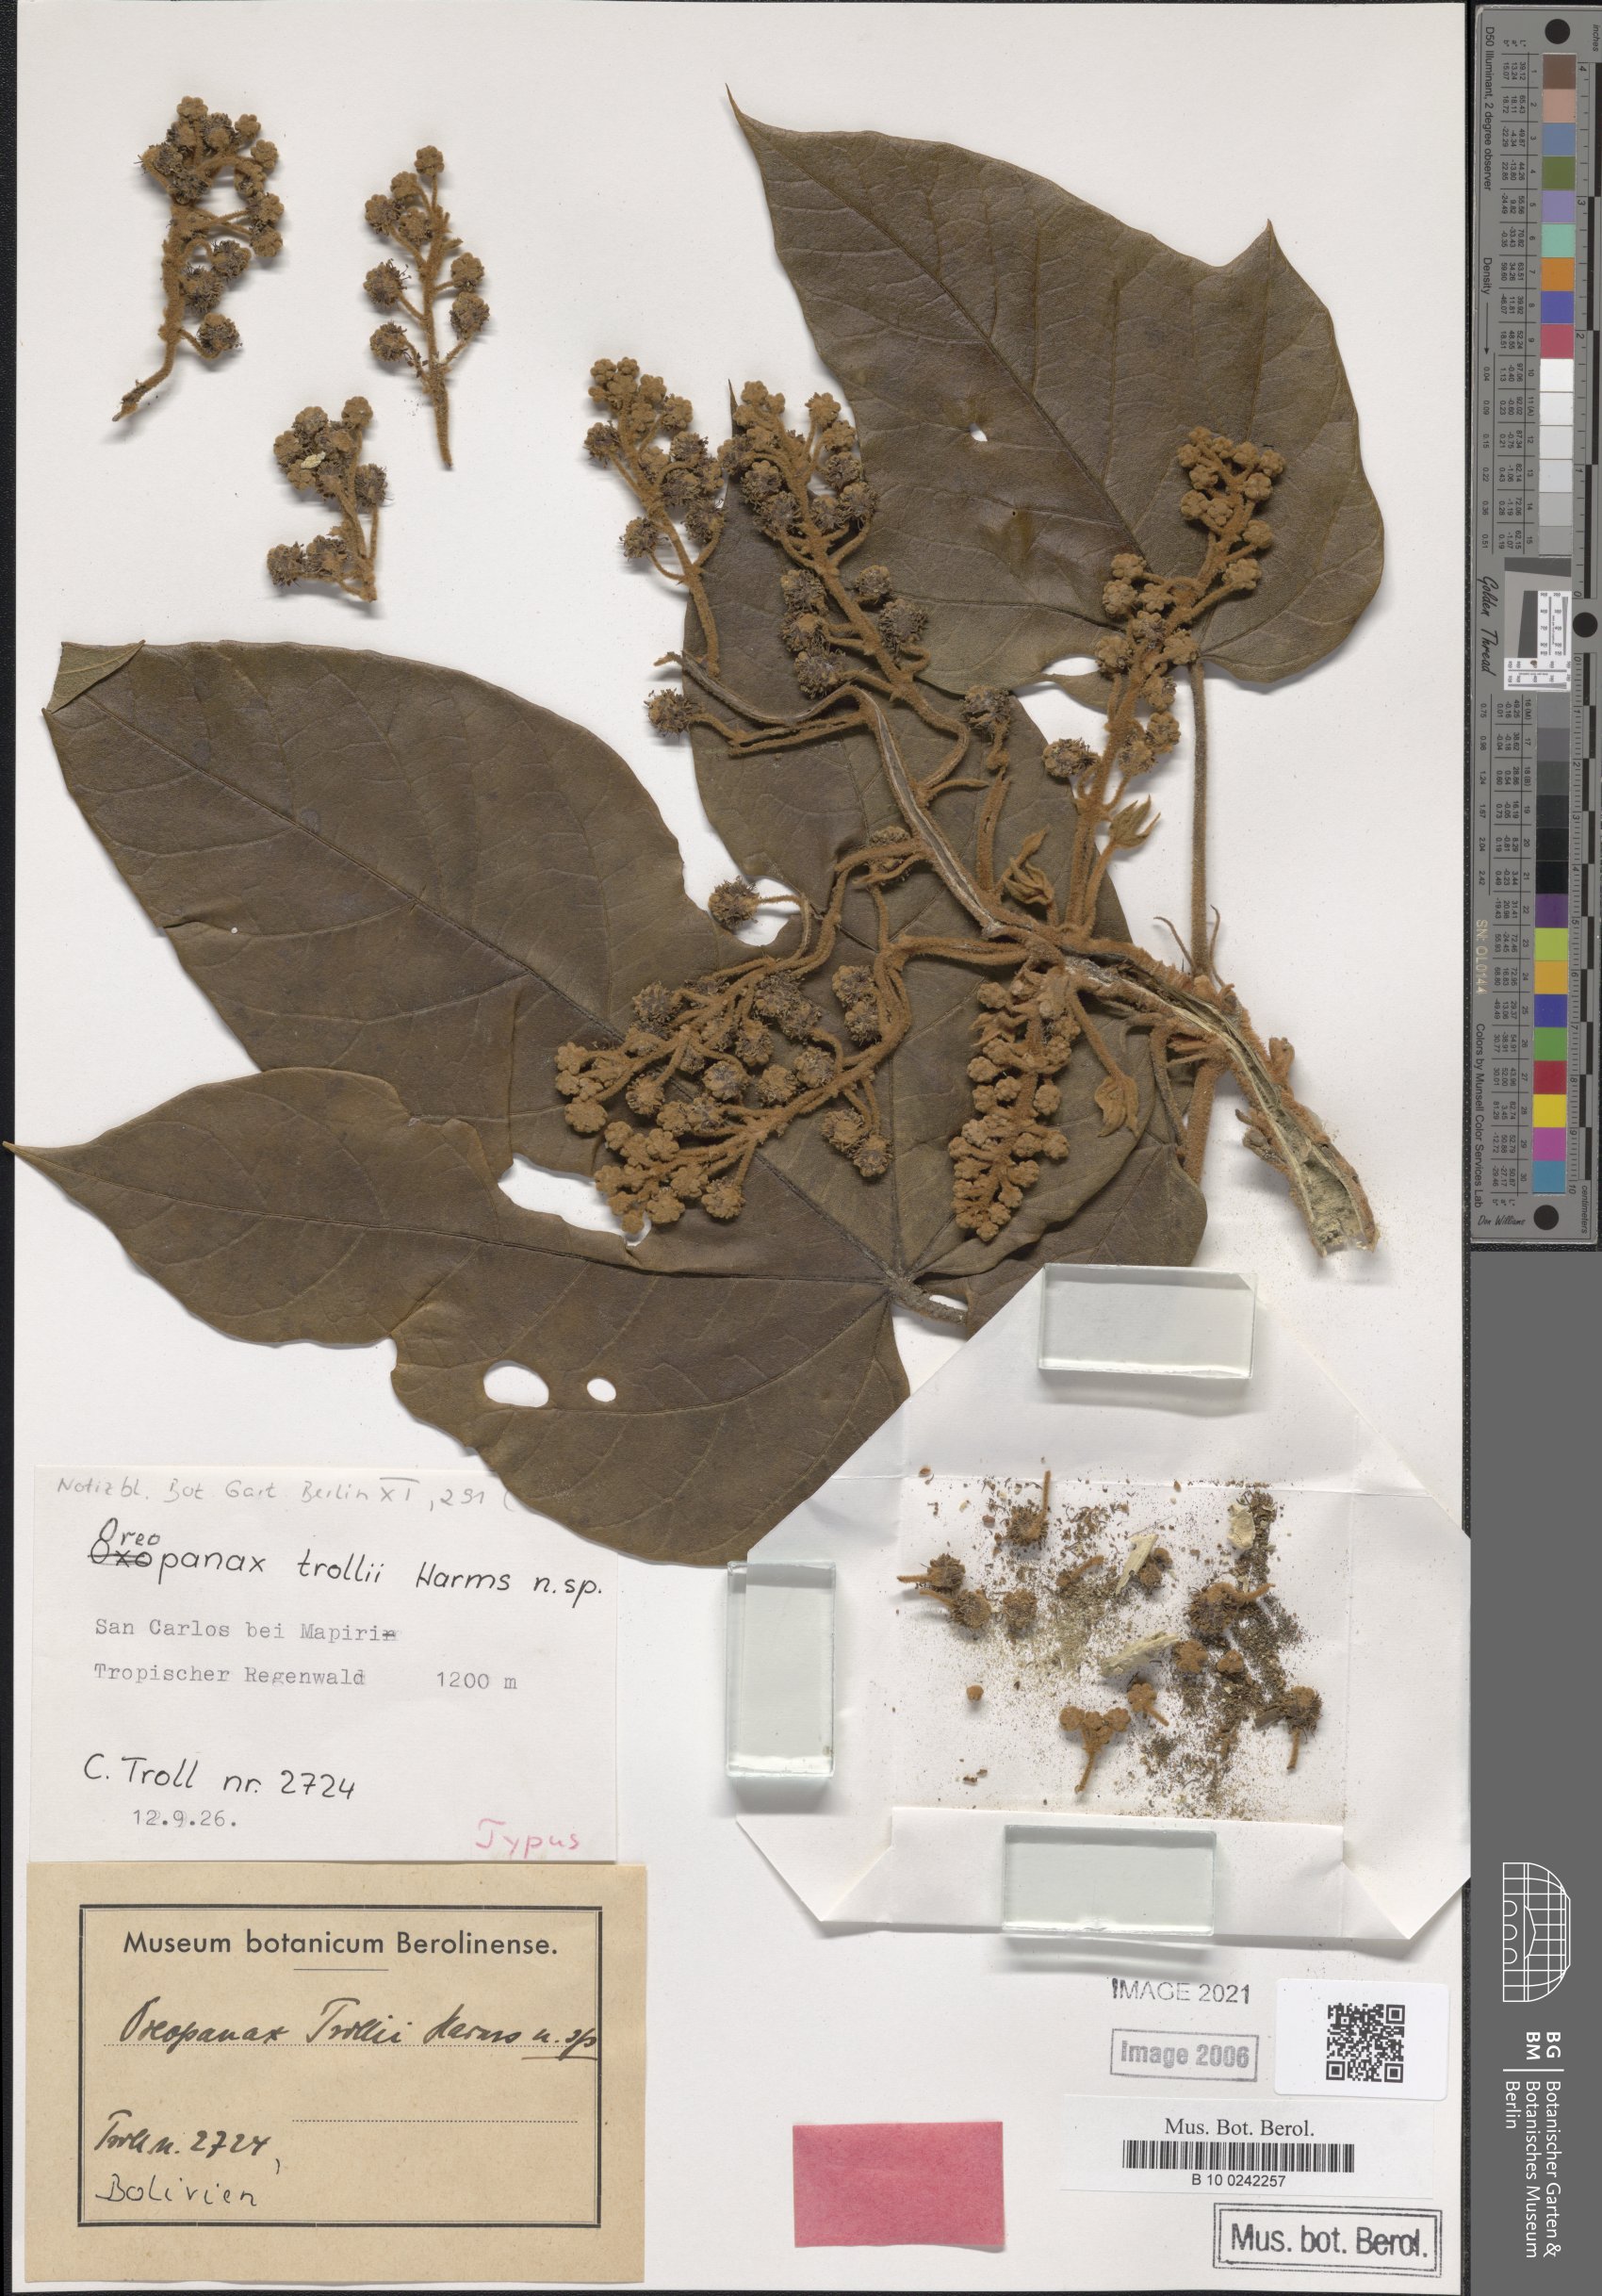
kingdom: Plantae
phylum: Tracheophyta
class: Magnoliopsida
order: Apiales
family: Araliaceae
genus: Oreopanax
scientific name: Oreopanax trollii
